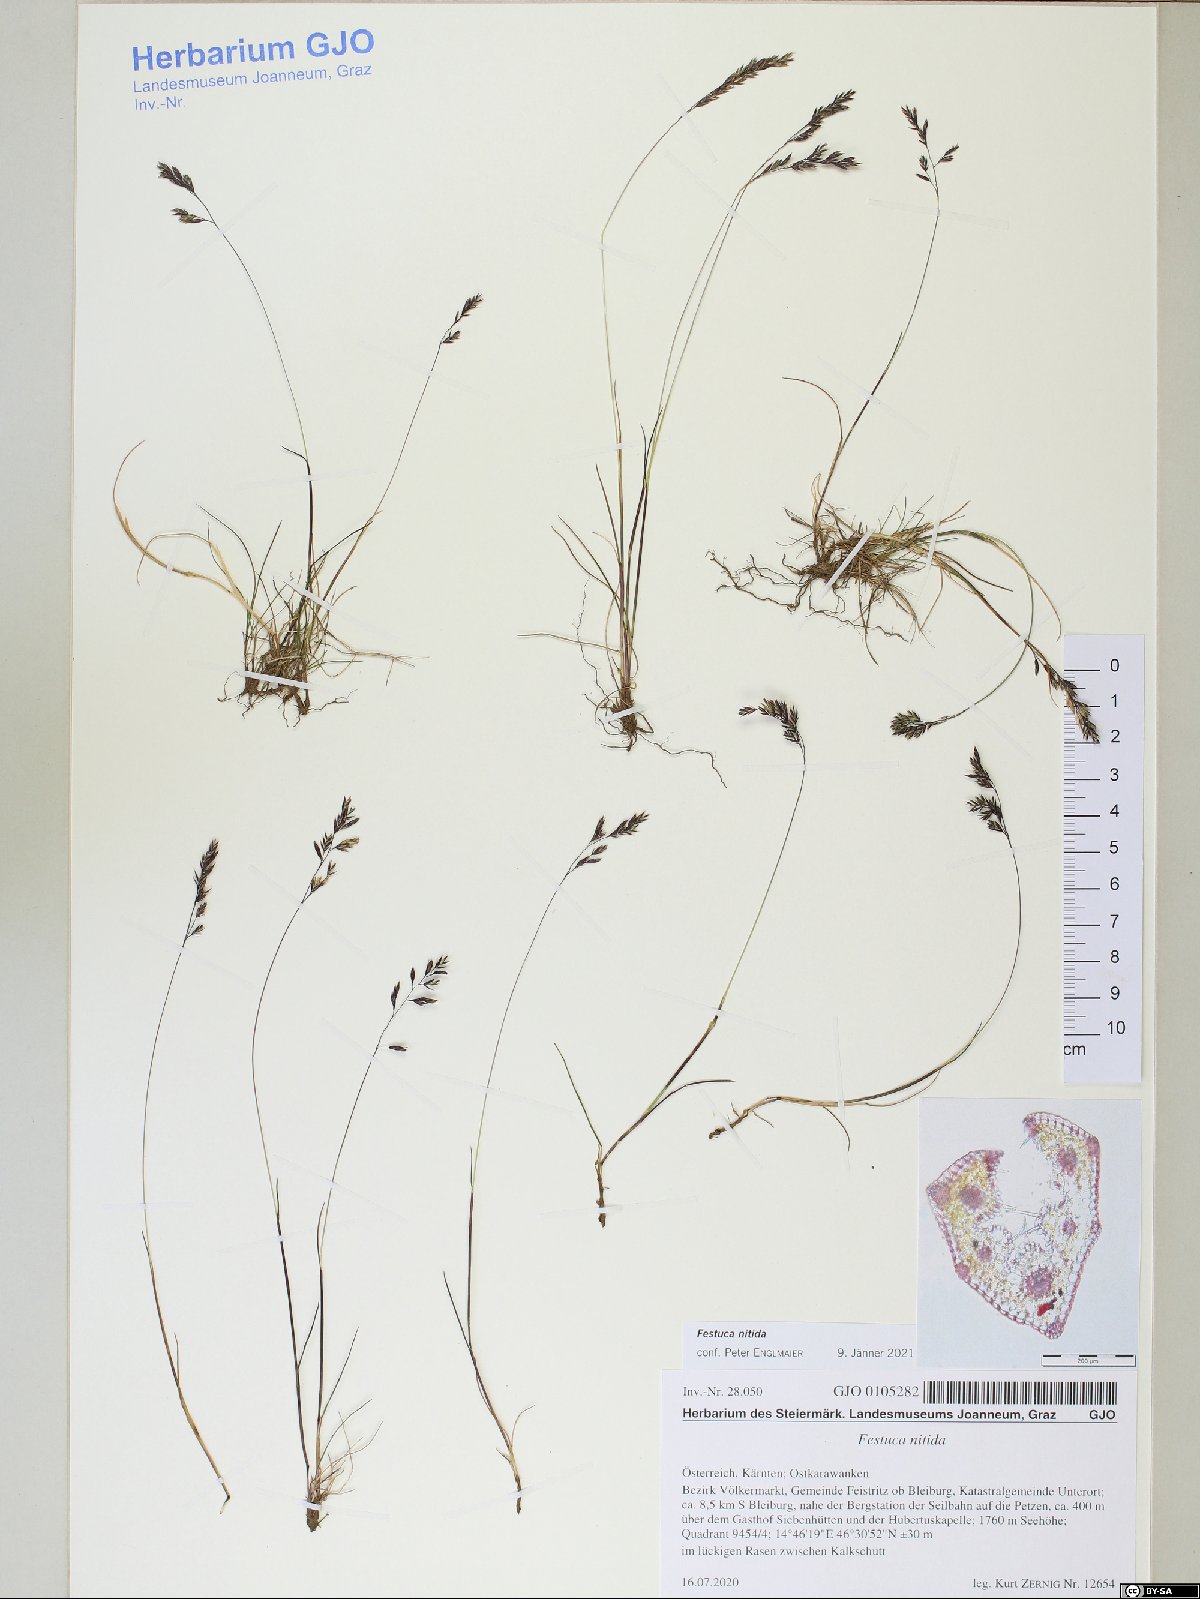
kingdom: Plantae
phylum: Tracheophyta
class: Liliopsida
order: Poales
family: Poaceae
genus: Festuca
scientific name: Festuca nitida
